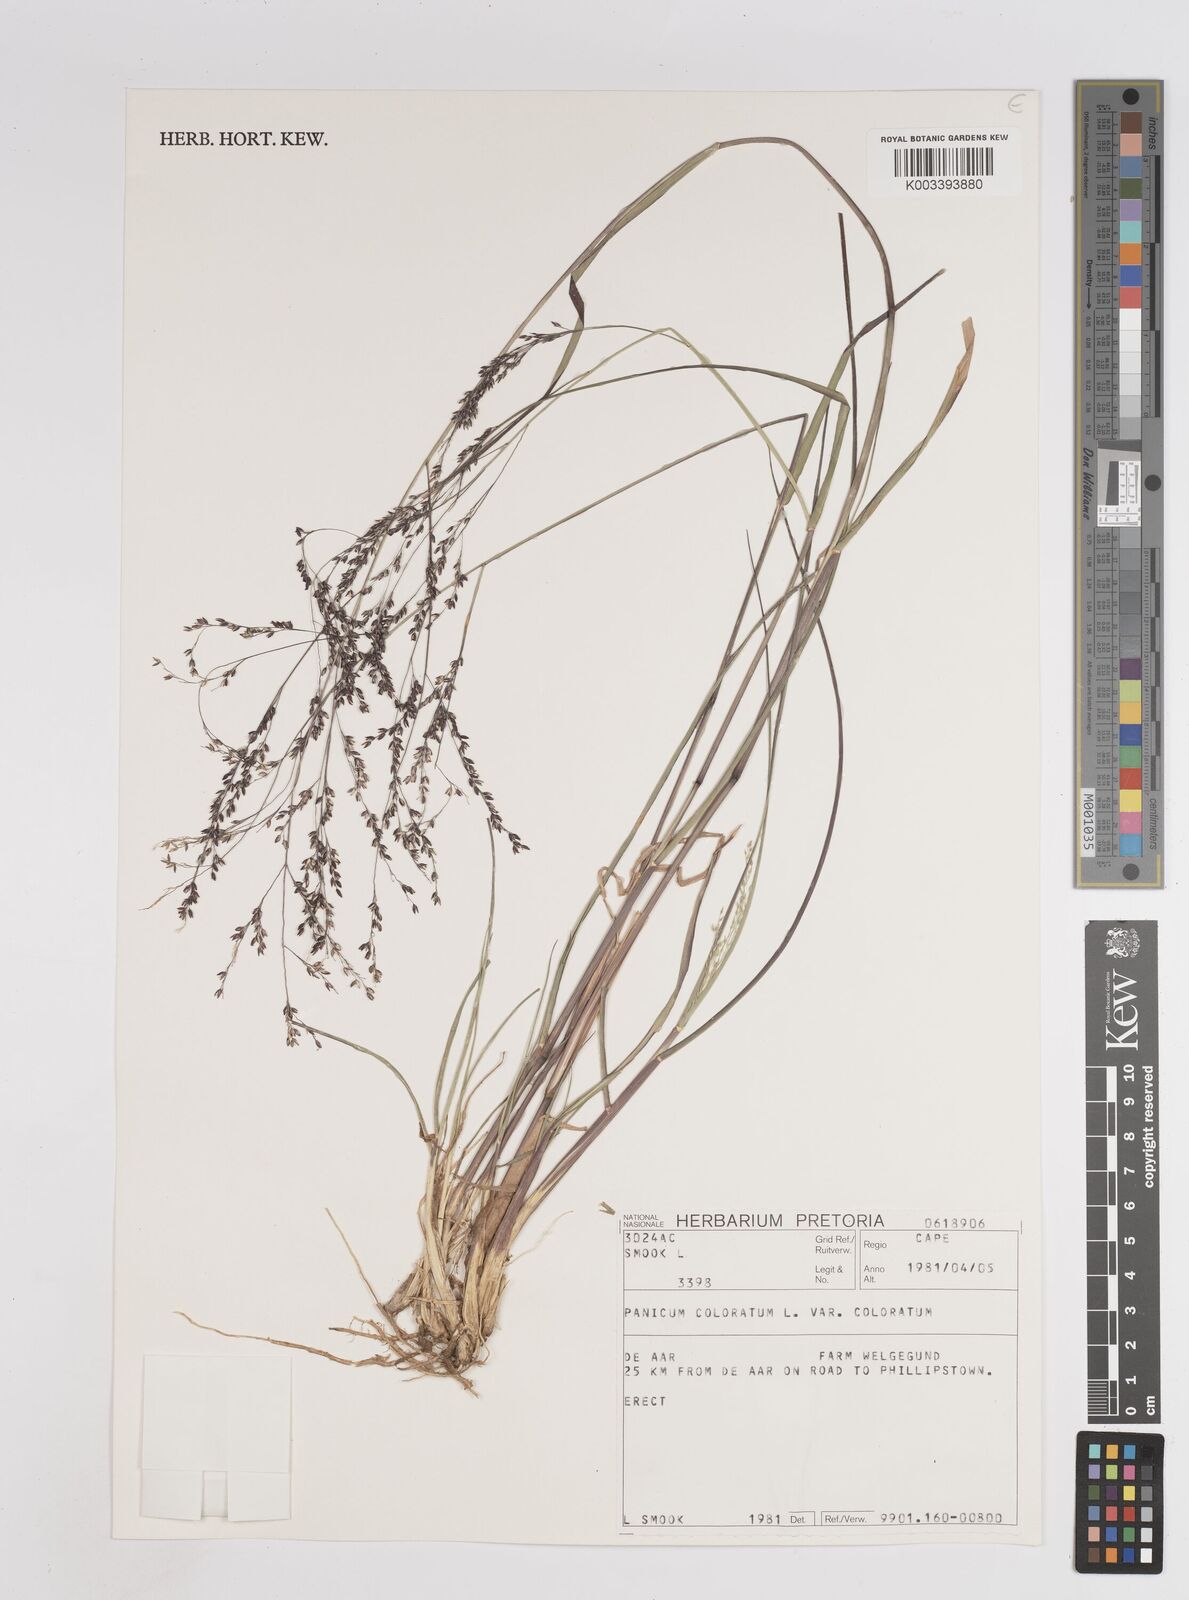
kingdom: Plantae
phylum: Tracheophyta
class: Liliopsida
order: Poales
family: Poaceae
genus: Panicum
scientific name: Panicum
